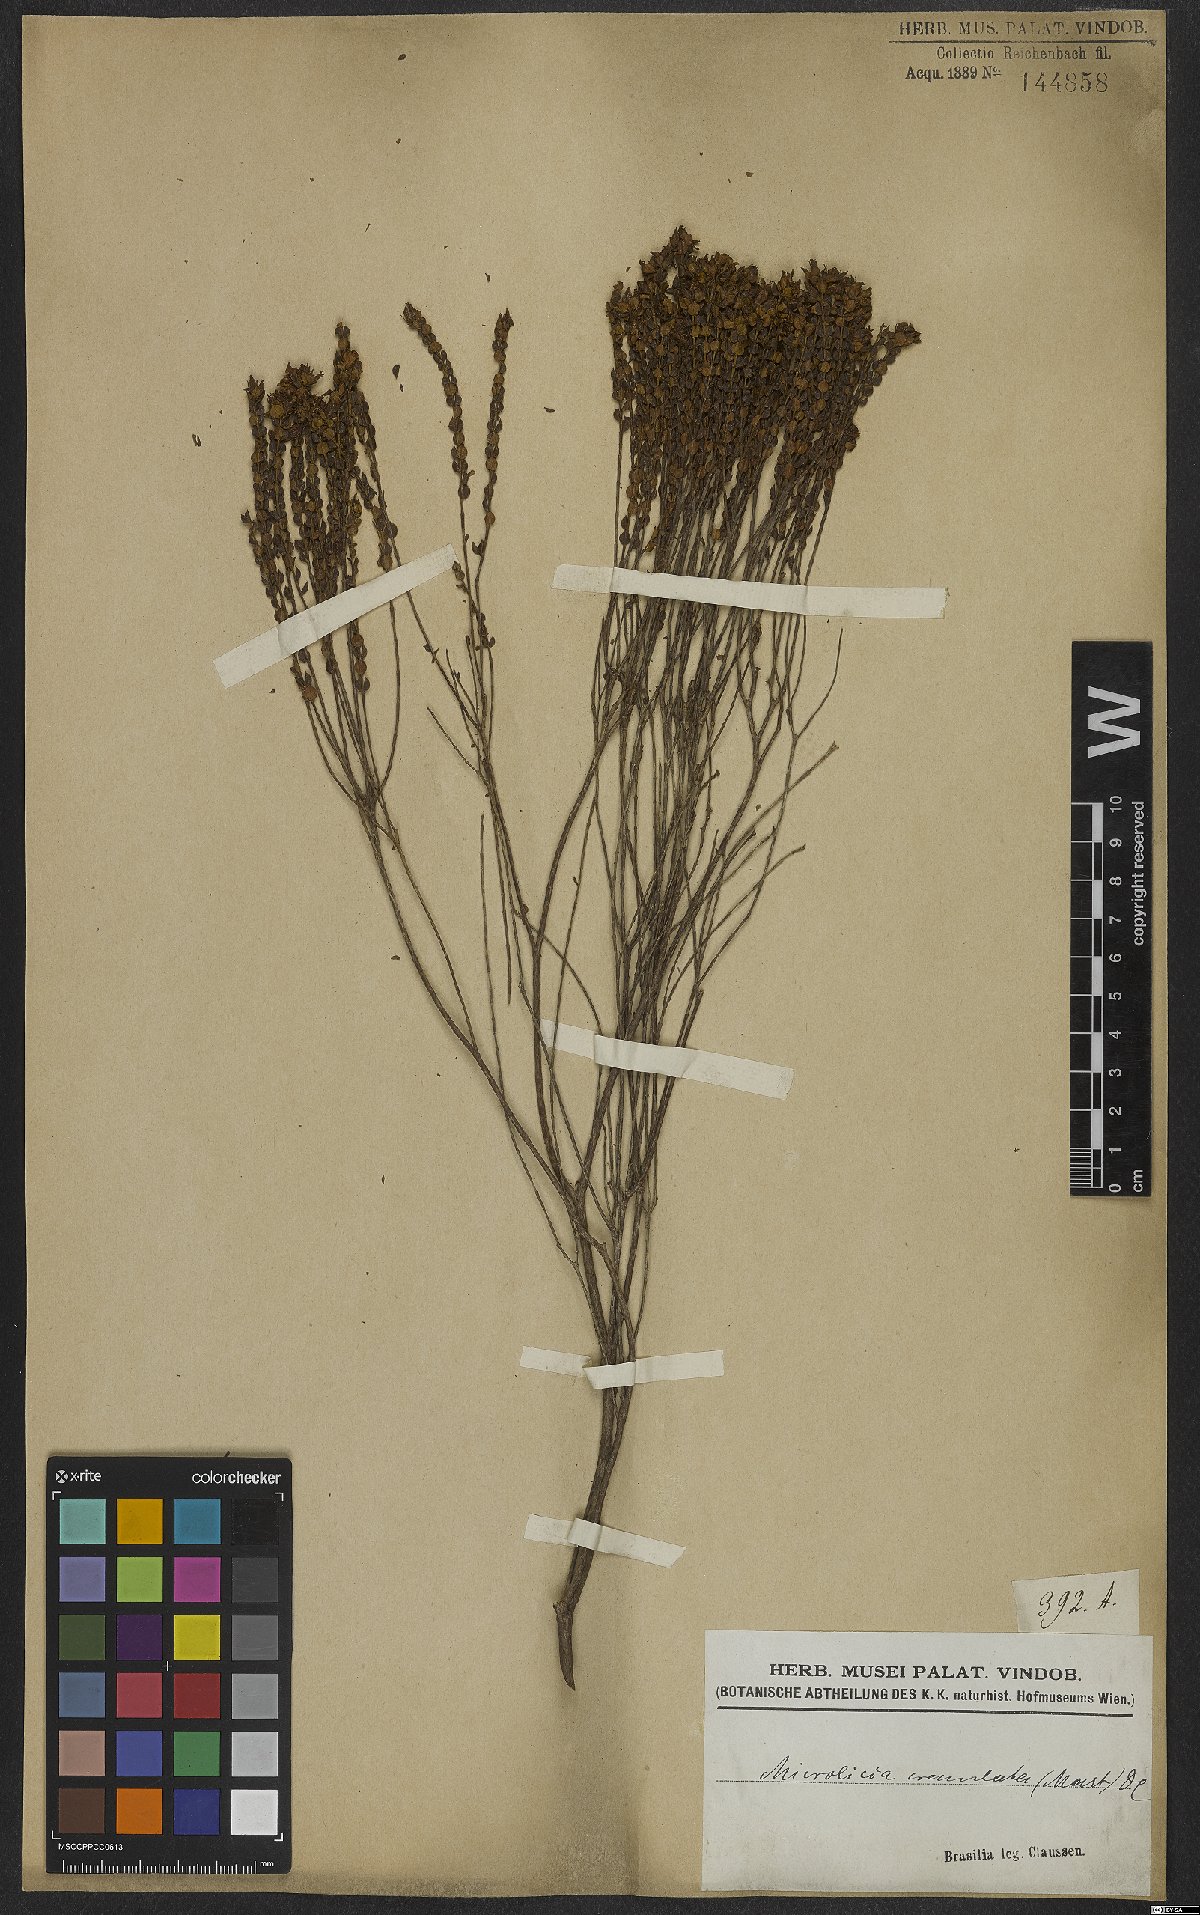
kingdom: Plantae
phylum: Tracheophyta
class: Magnoliopsida
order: Myrtales
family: Melastomataceae
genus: Microlicia
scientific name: Microlicia crenulata
